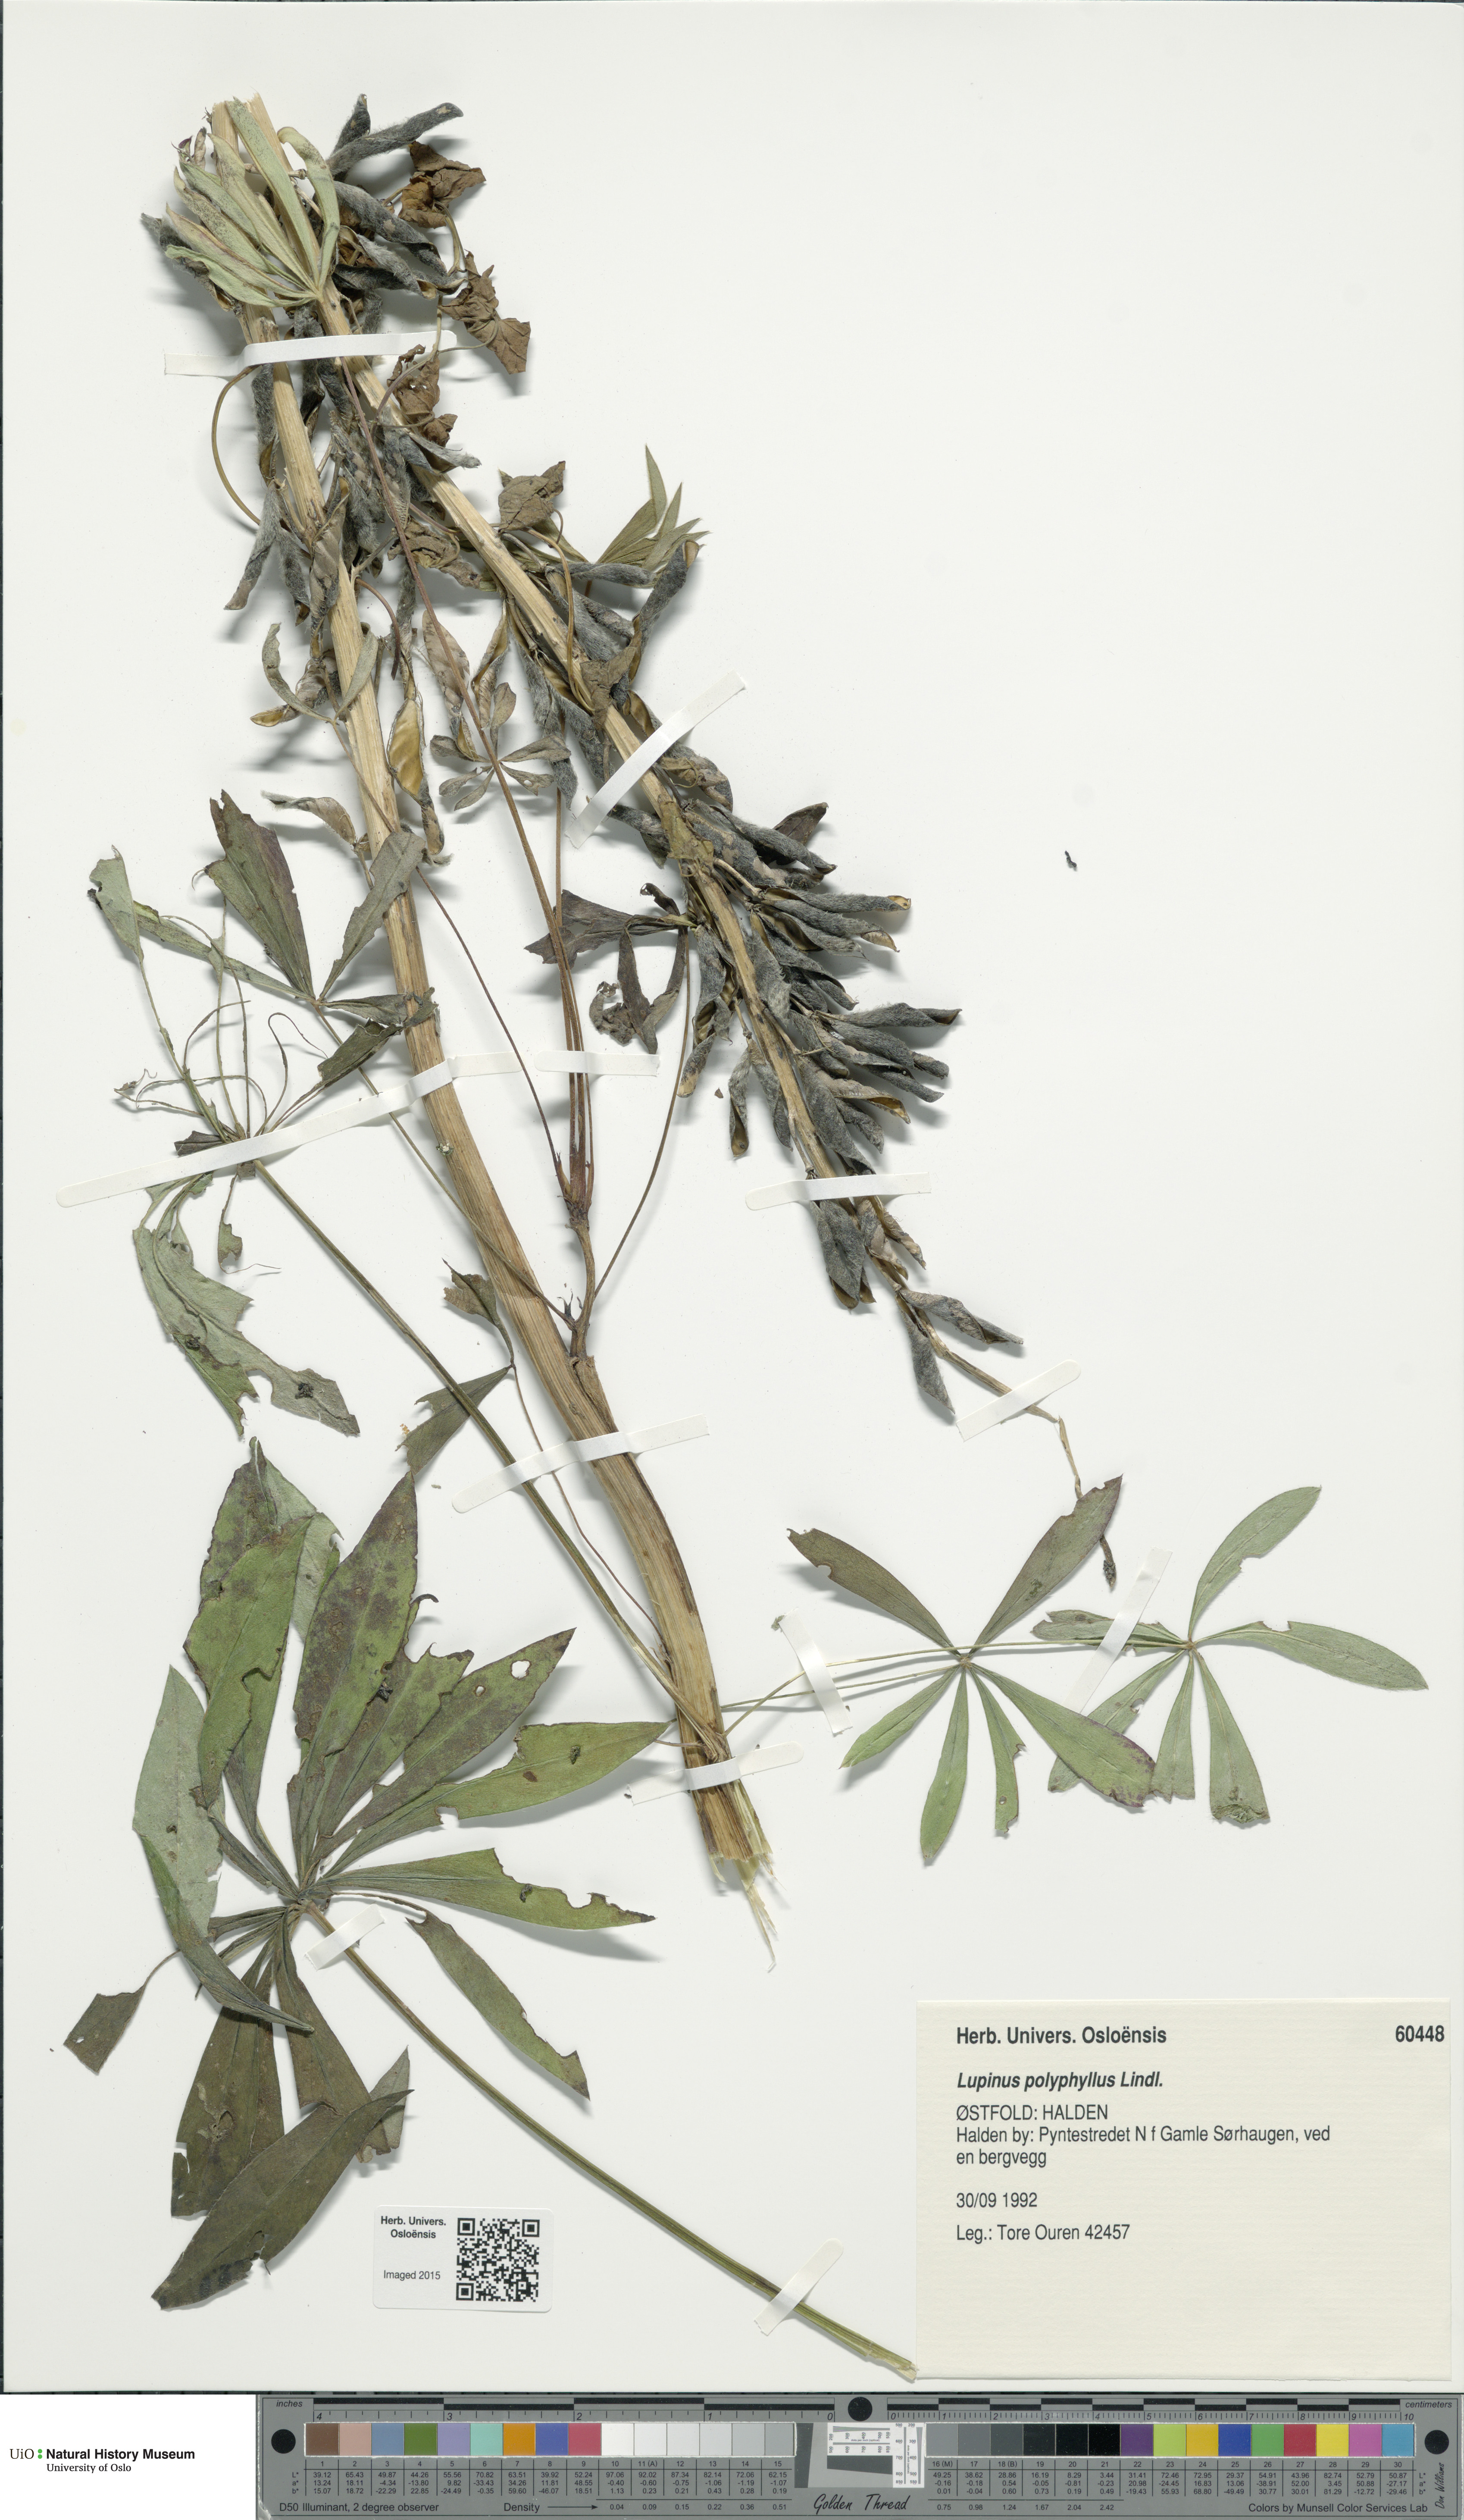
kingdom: Plantae
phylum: Tracheophyta
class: Magnoliopsida
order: Fabales
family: Fabaceae
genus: Lupinus
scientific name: Lupinus polyphyllus
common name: Garden lupin
